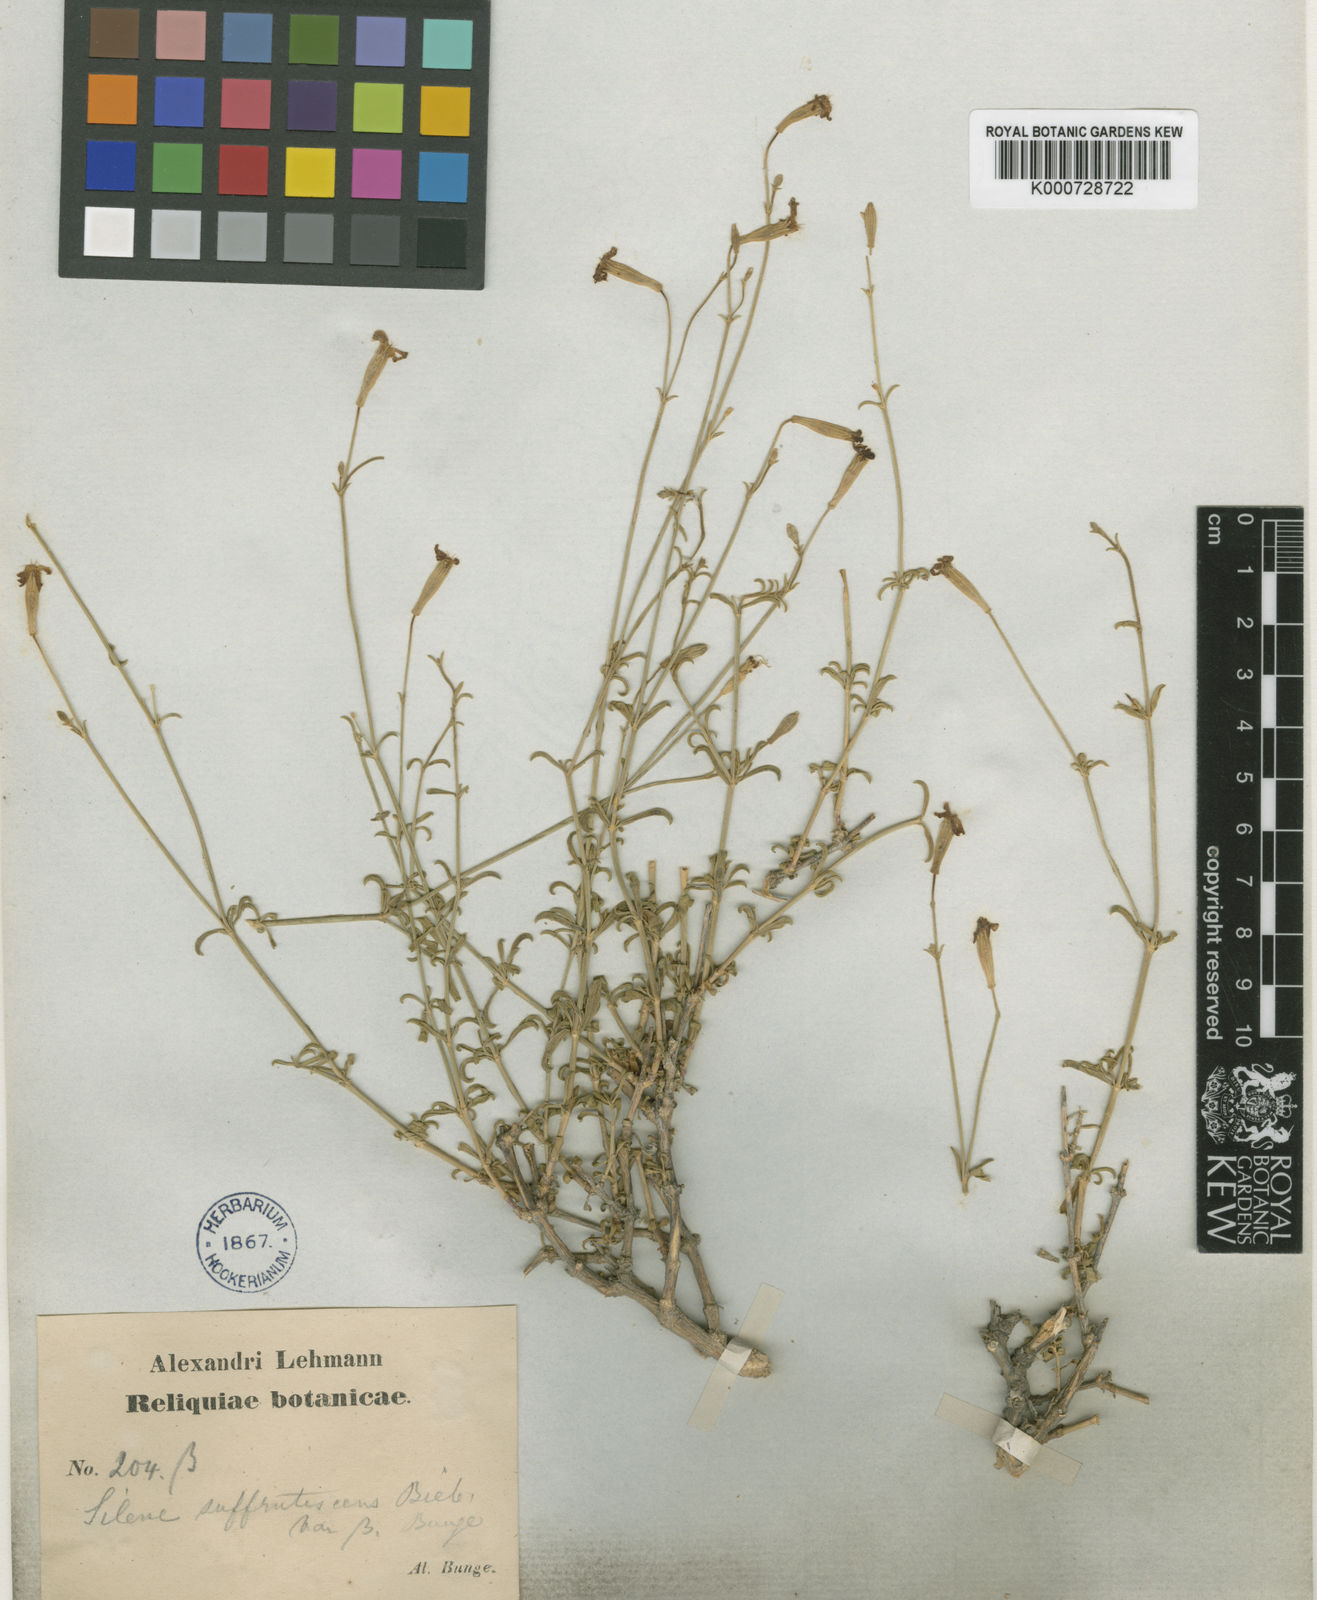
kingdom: Plantae
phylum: Tracheophyta
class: Magnoliopsida
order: Caryophyllales
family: Caryophyllaceae
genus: Silene
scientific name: Silene fruticulosa
